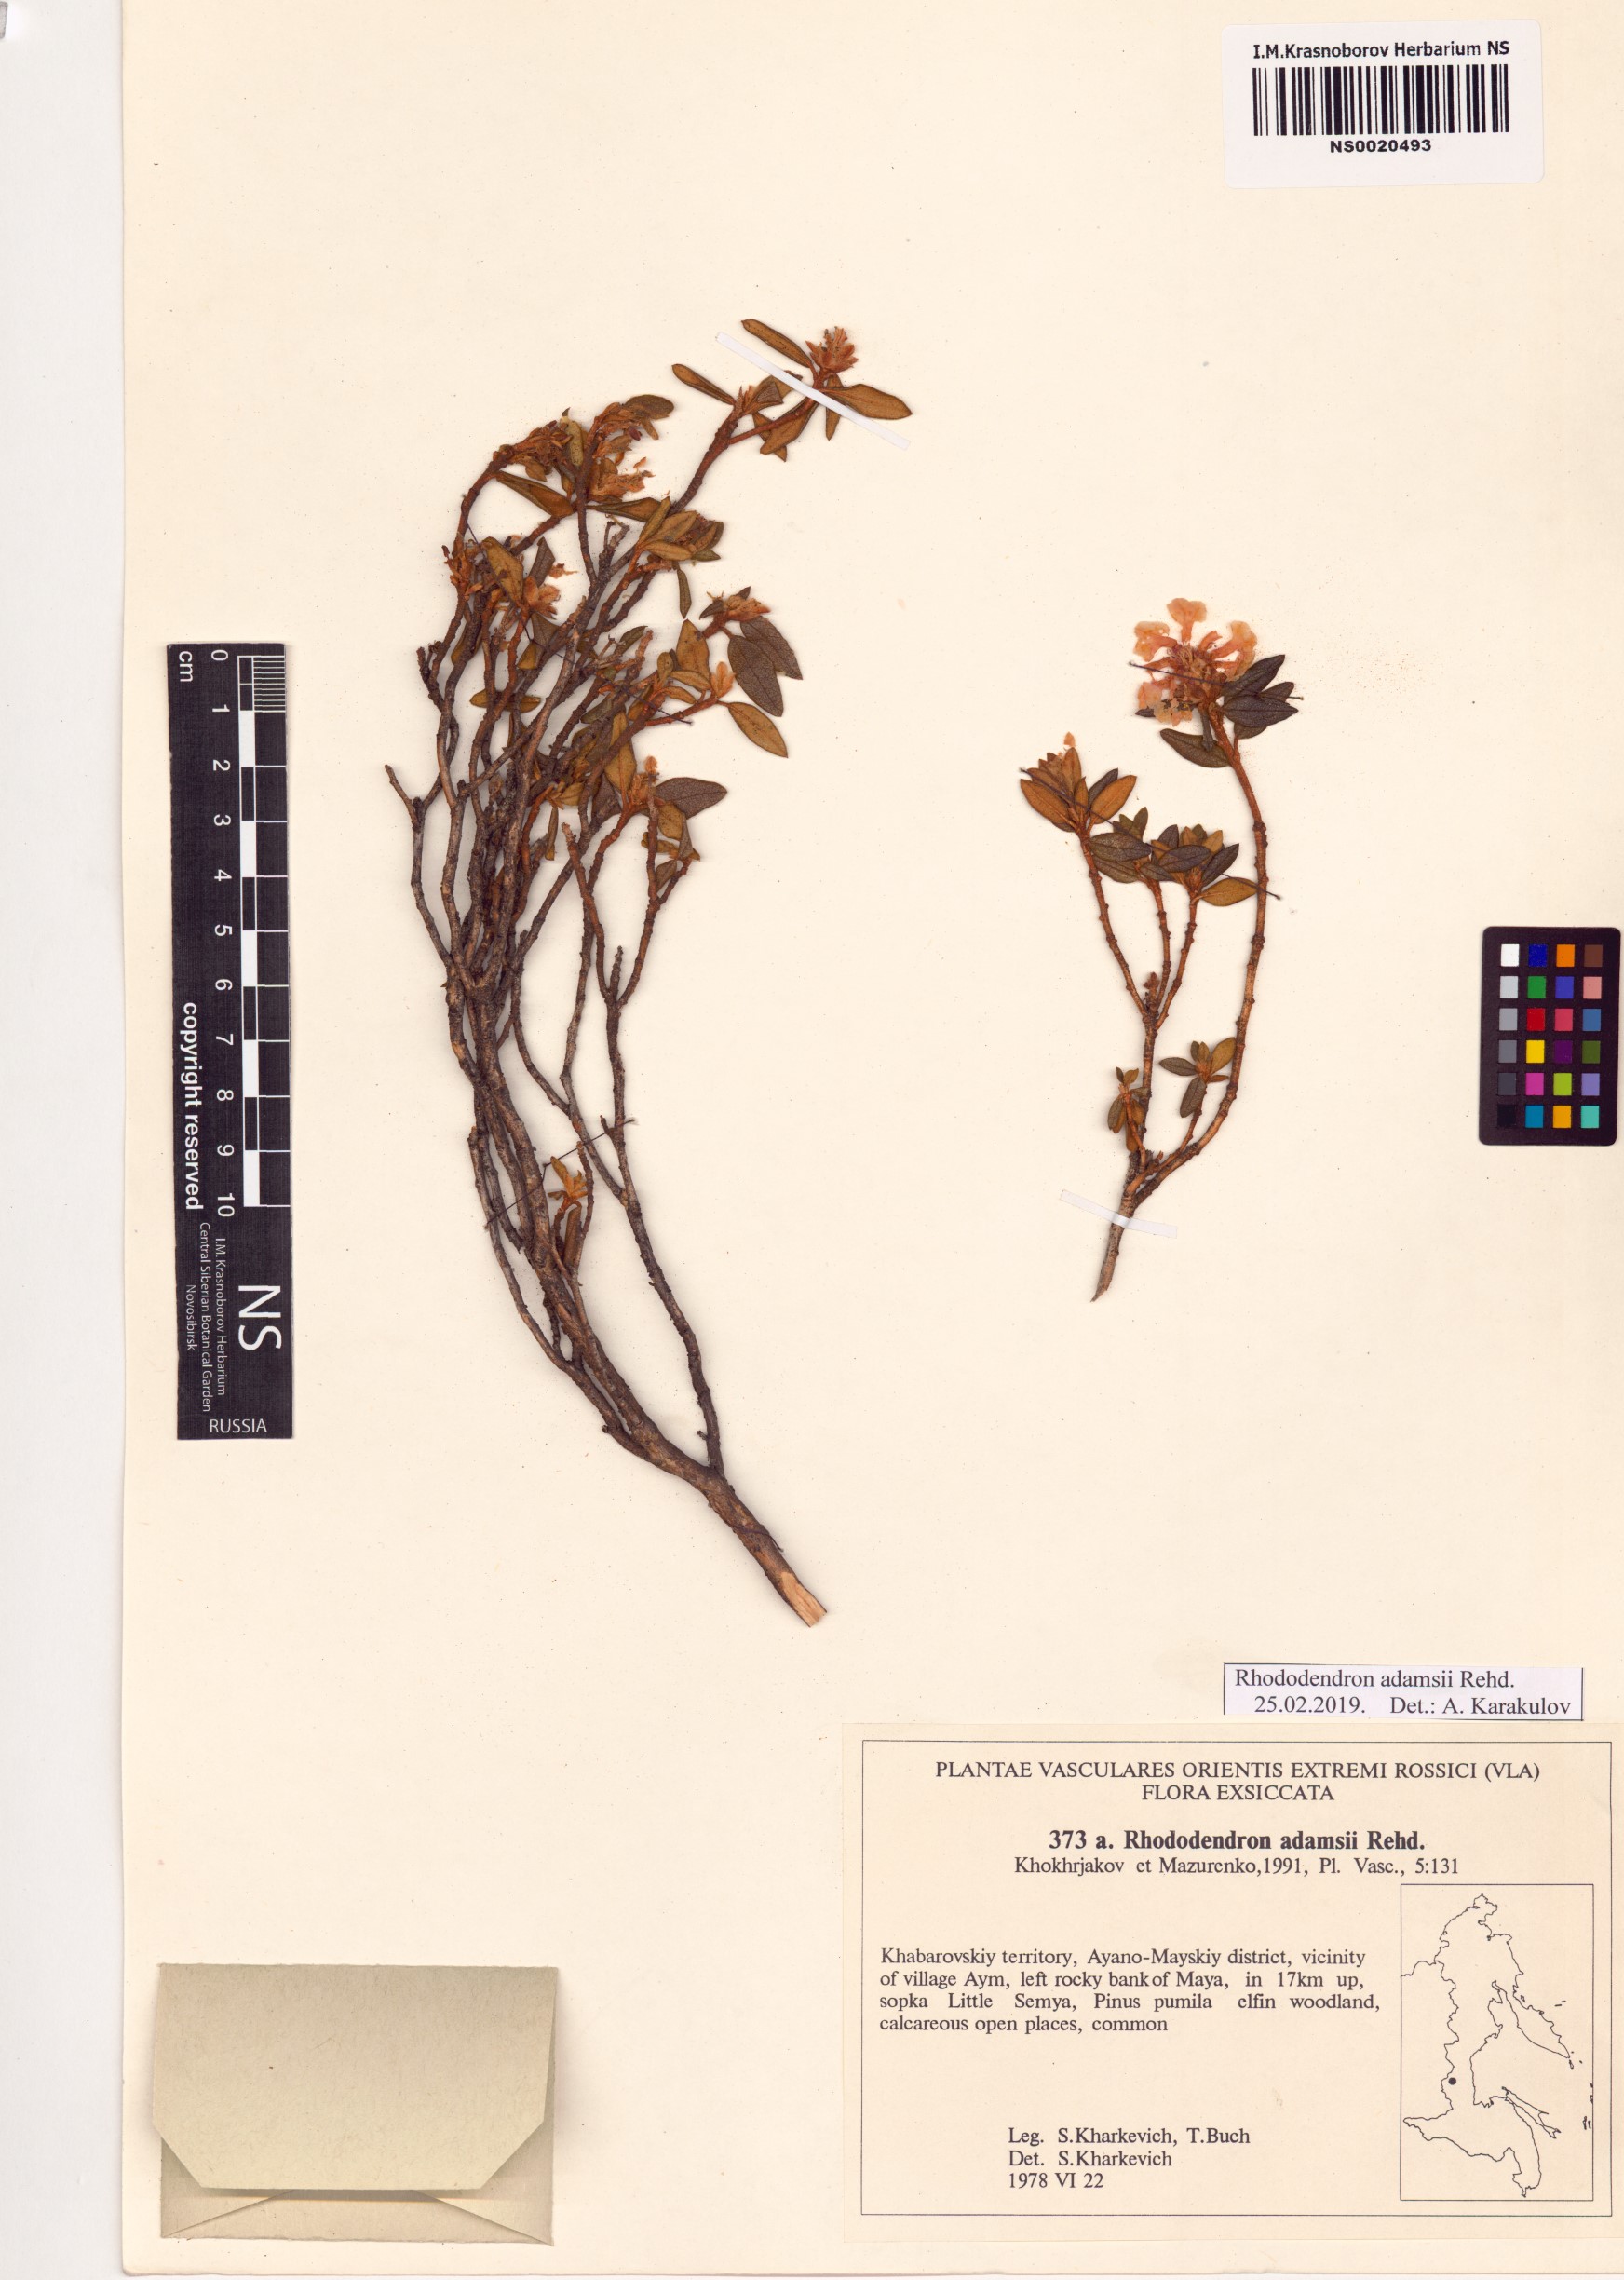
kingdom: Plantae
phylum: Tracheophyta
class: Magnoliopsida
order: Ericales
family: Ericaceae
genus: Rhododendron
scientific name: Rhododendron adamsii
